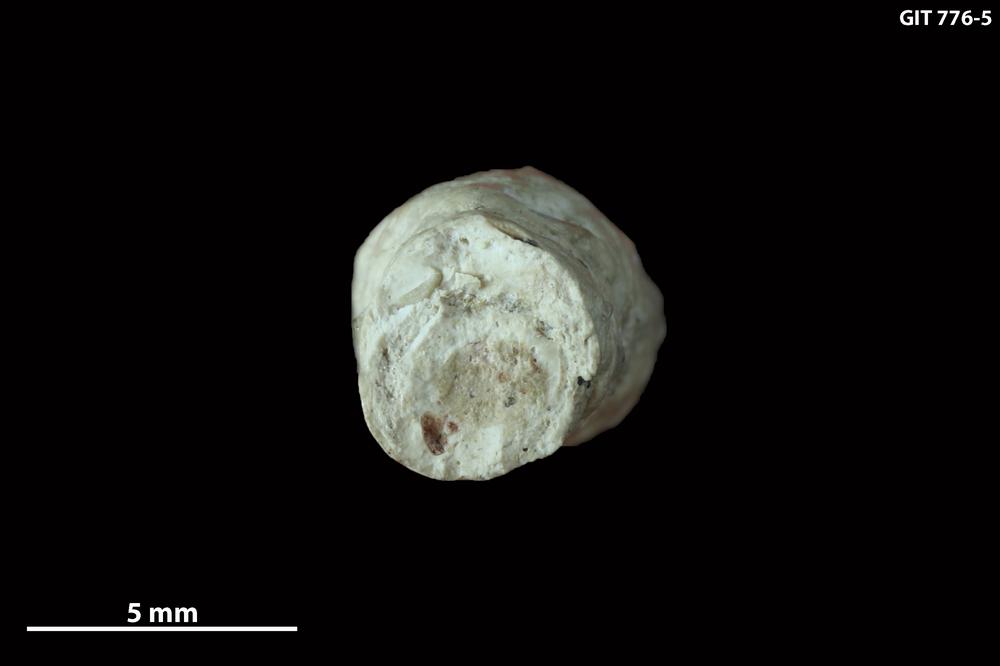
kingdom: Animalia
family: Coprulidae
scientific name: Coprulidae
